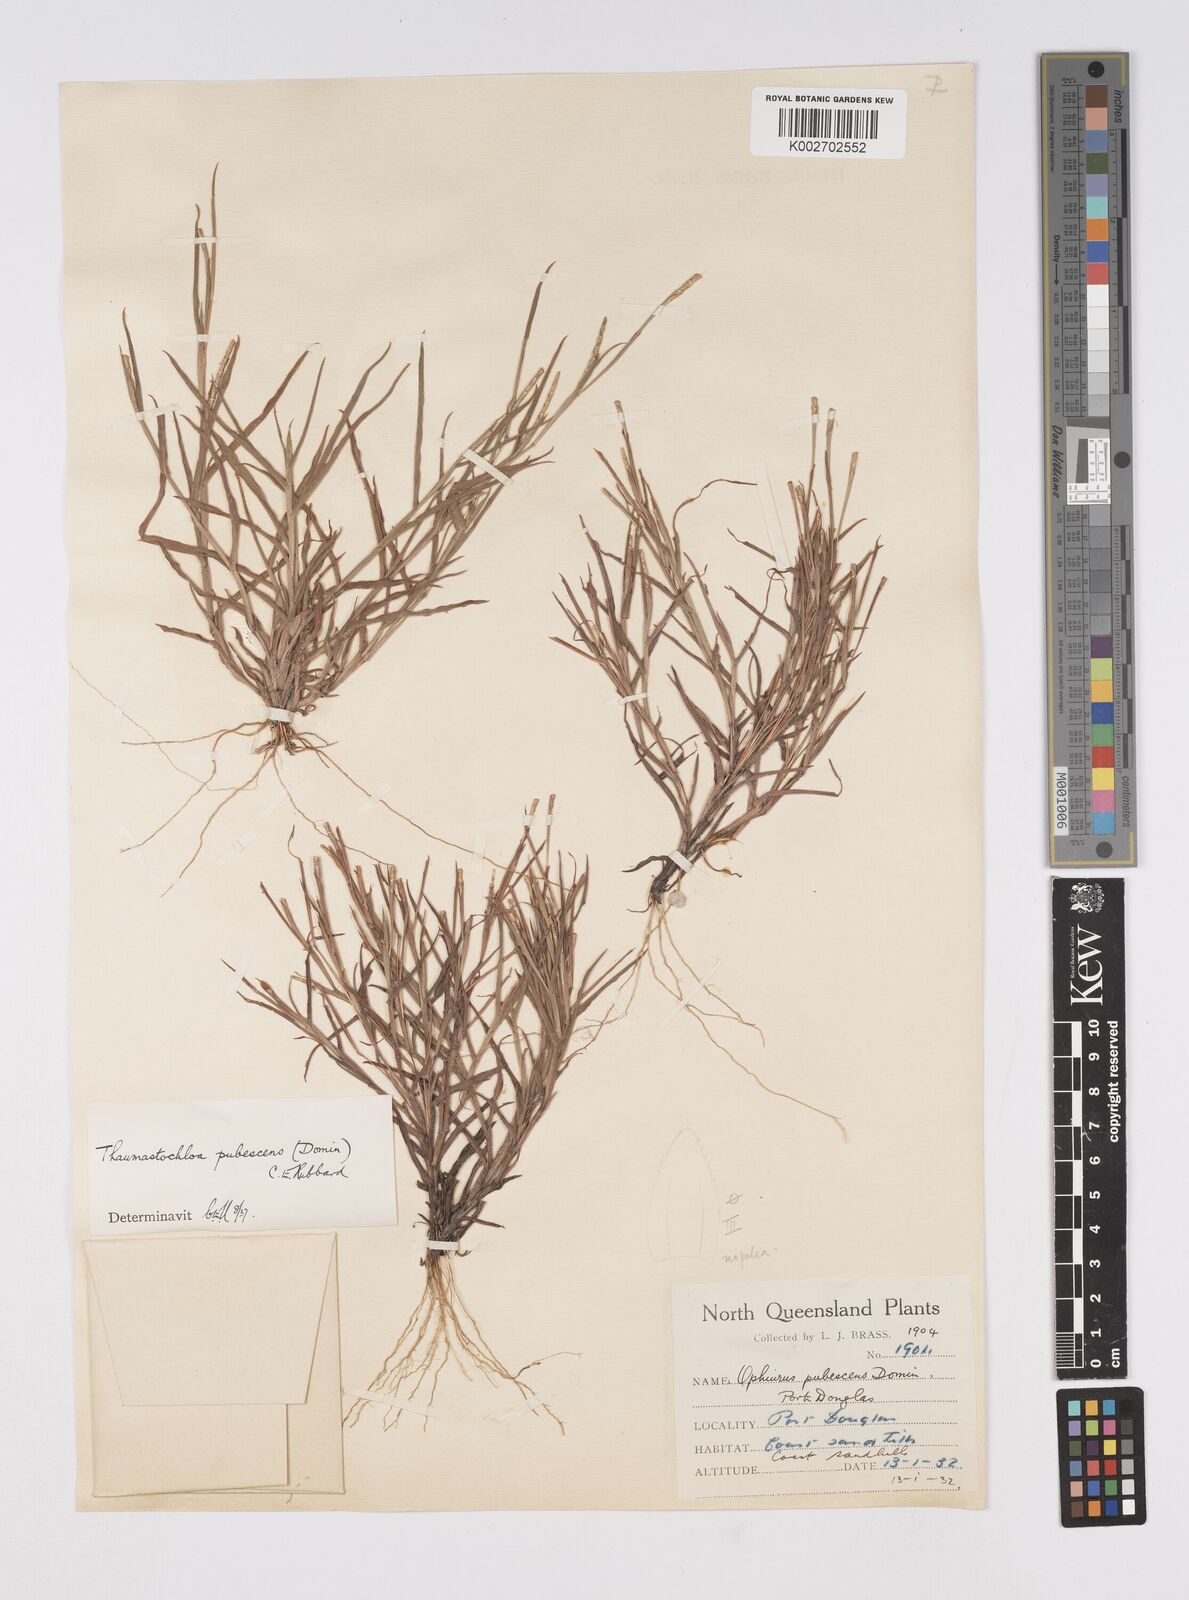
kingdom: Plantae
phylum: Tracheophyta
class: Liliopsida
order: Poales
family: Poaceae
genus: Thaumastochloa
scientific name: Thaumastochloa pubescens
